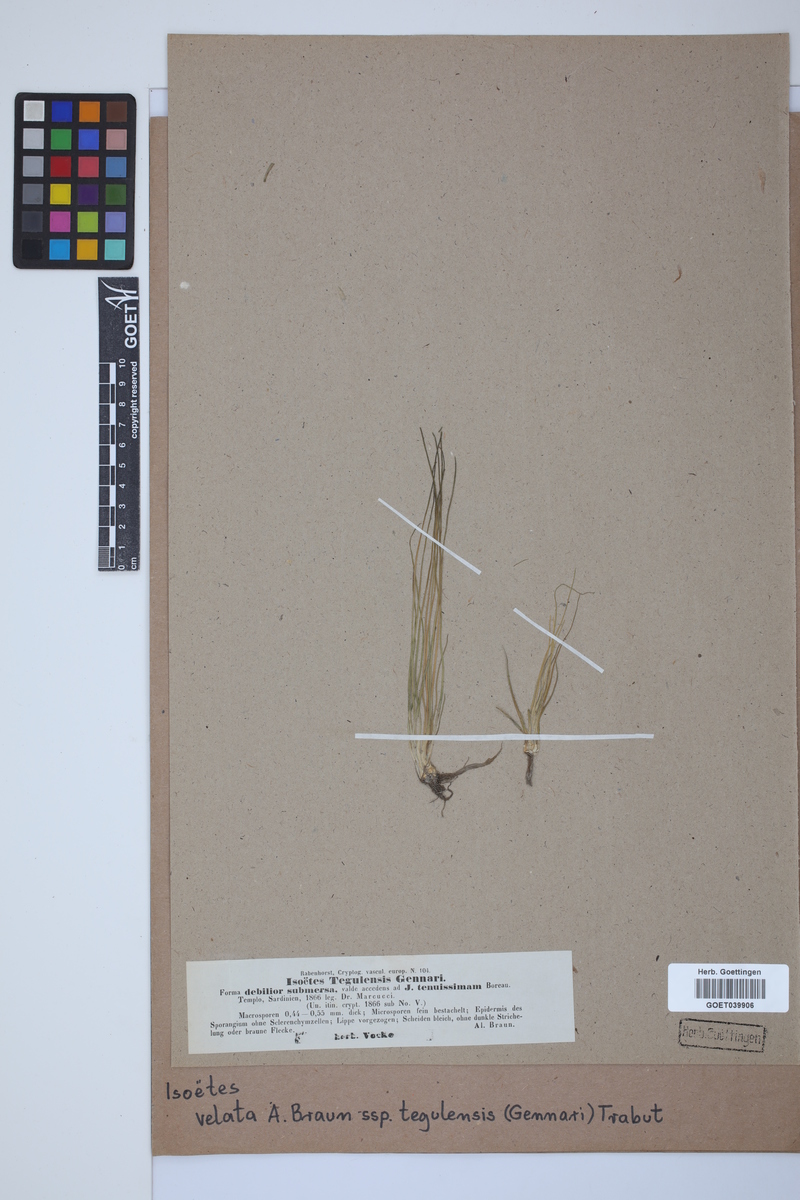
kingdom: Plantae
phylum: Tracheophyta
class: Lycopodiopsida
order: Isoetales
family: Isoetaceae
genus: Isoetes
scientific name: Isoetes tiguliana
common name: Sardinian quillwort
